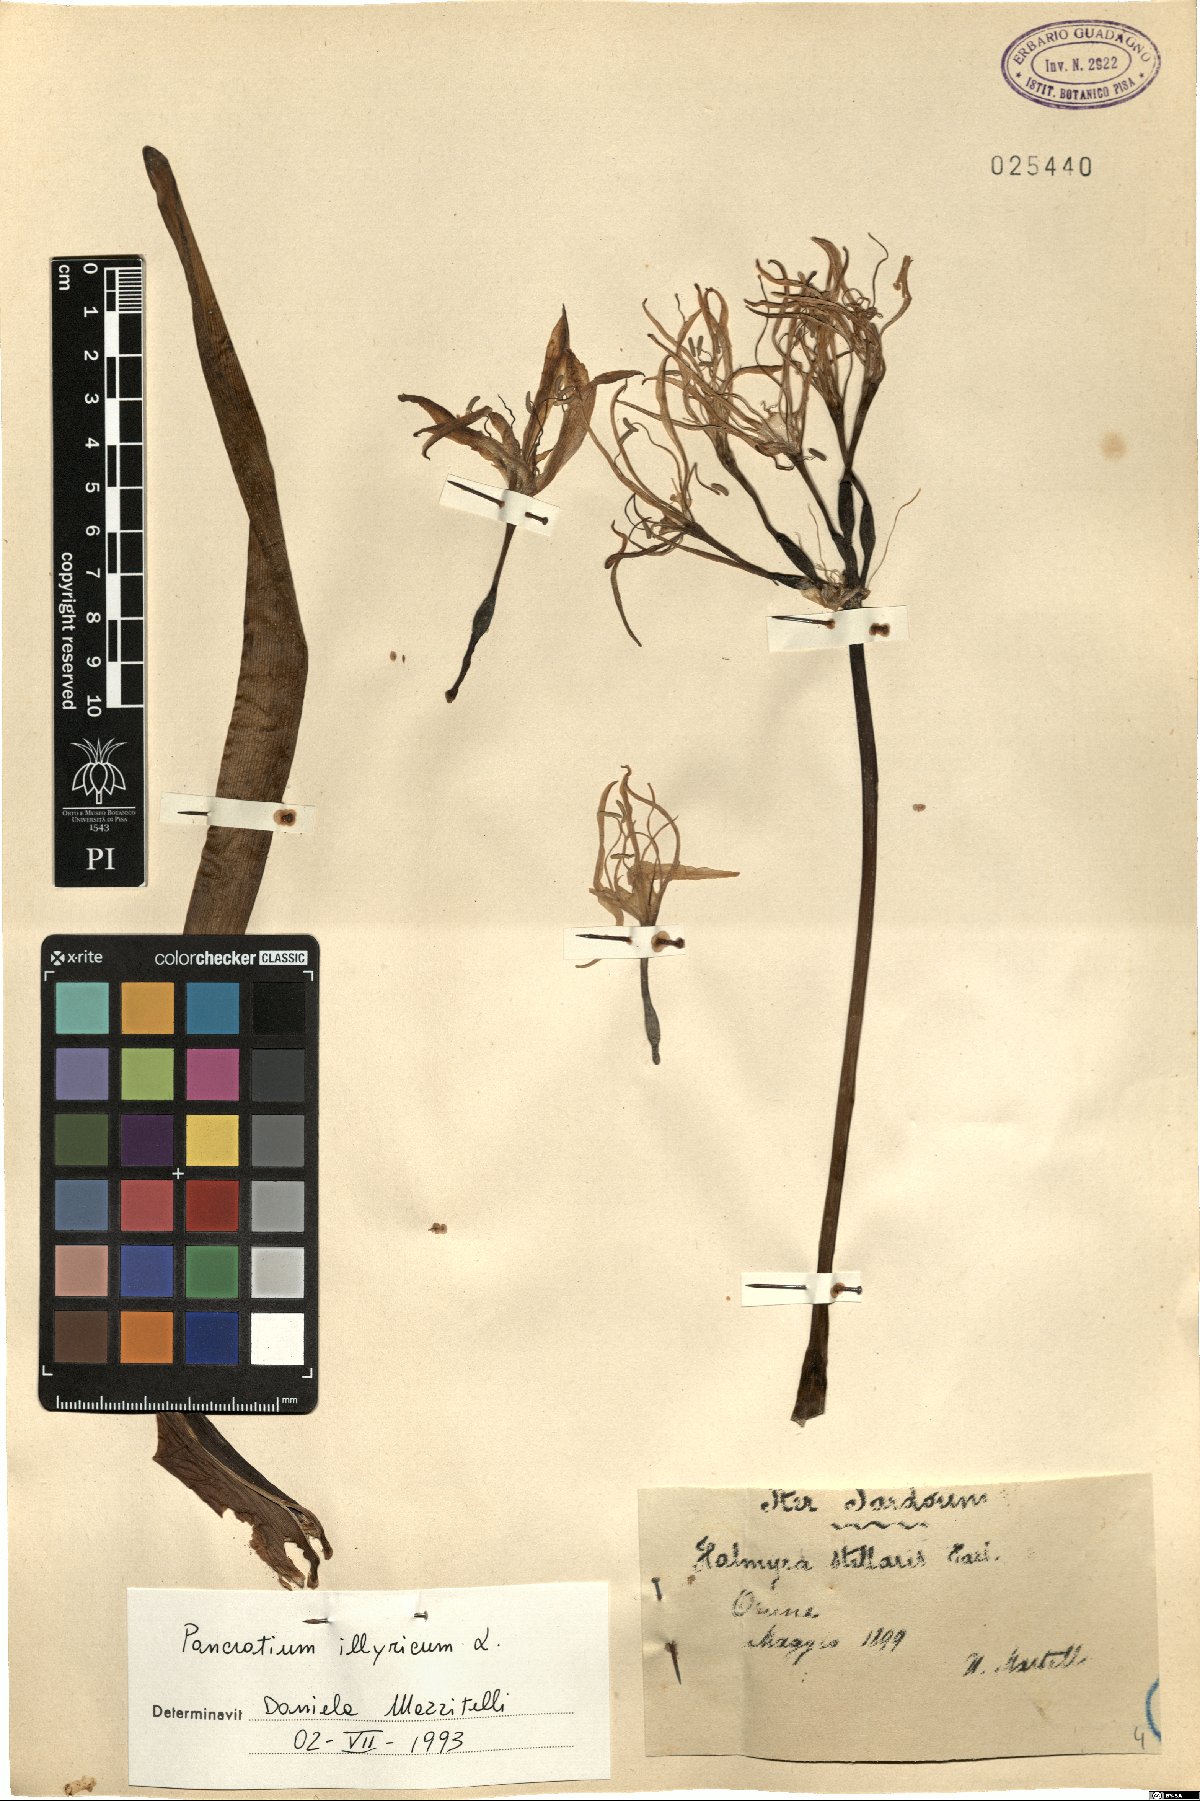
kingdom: Plantae
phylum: Tracheophyta
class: Liliopsida
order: Asparagales
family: Amaryllidaceae
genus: Pancratium
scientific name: Pancratium illyricum
